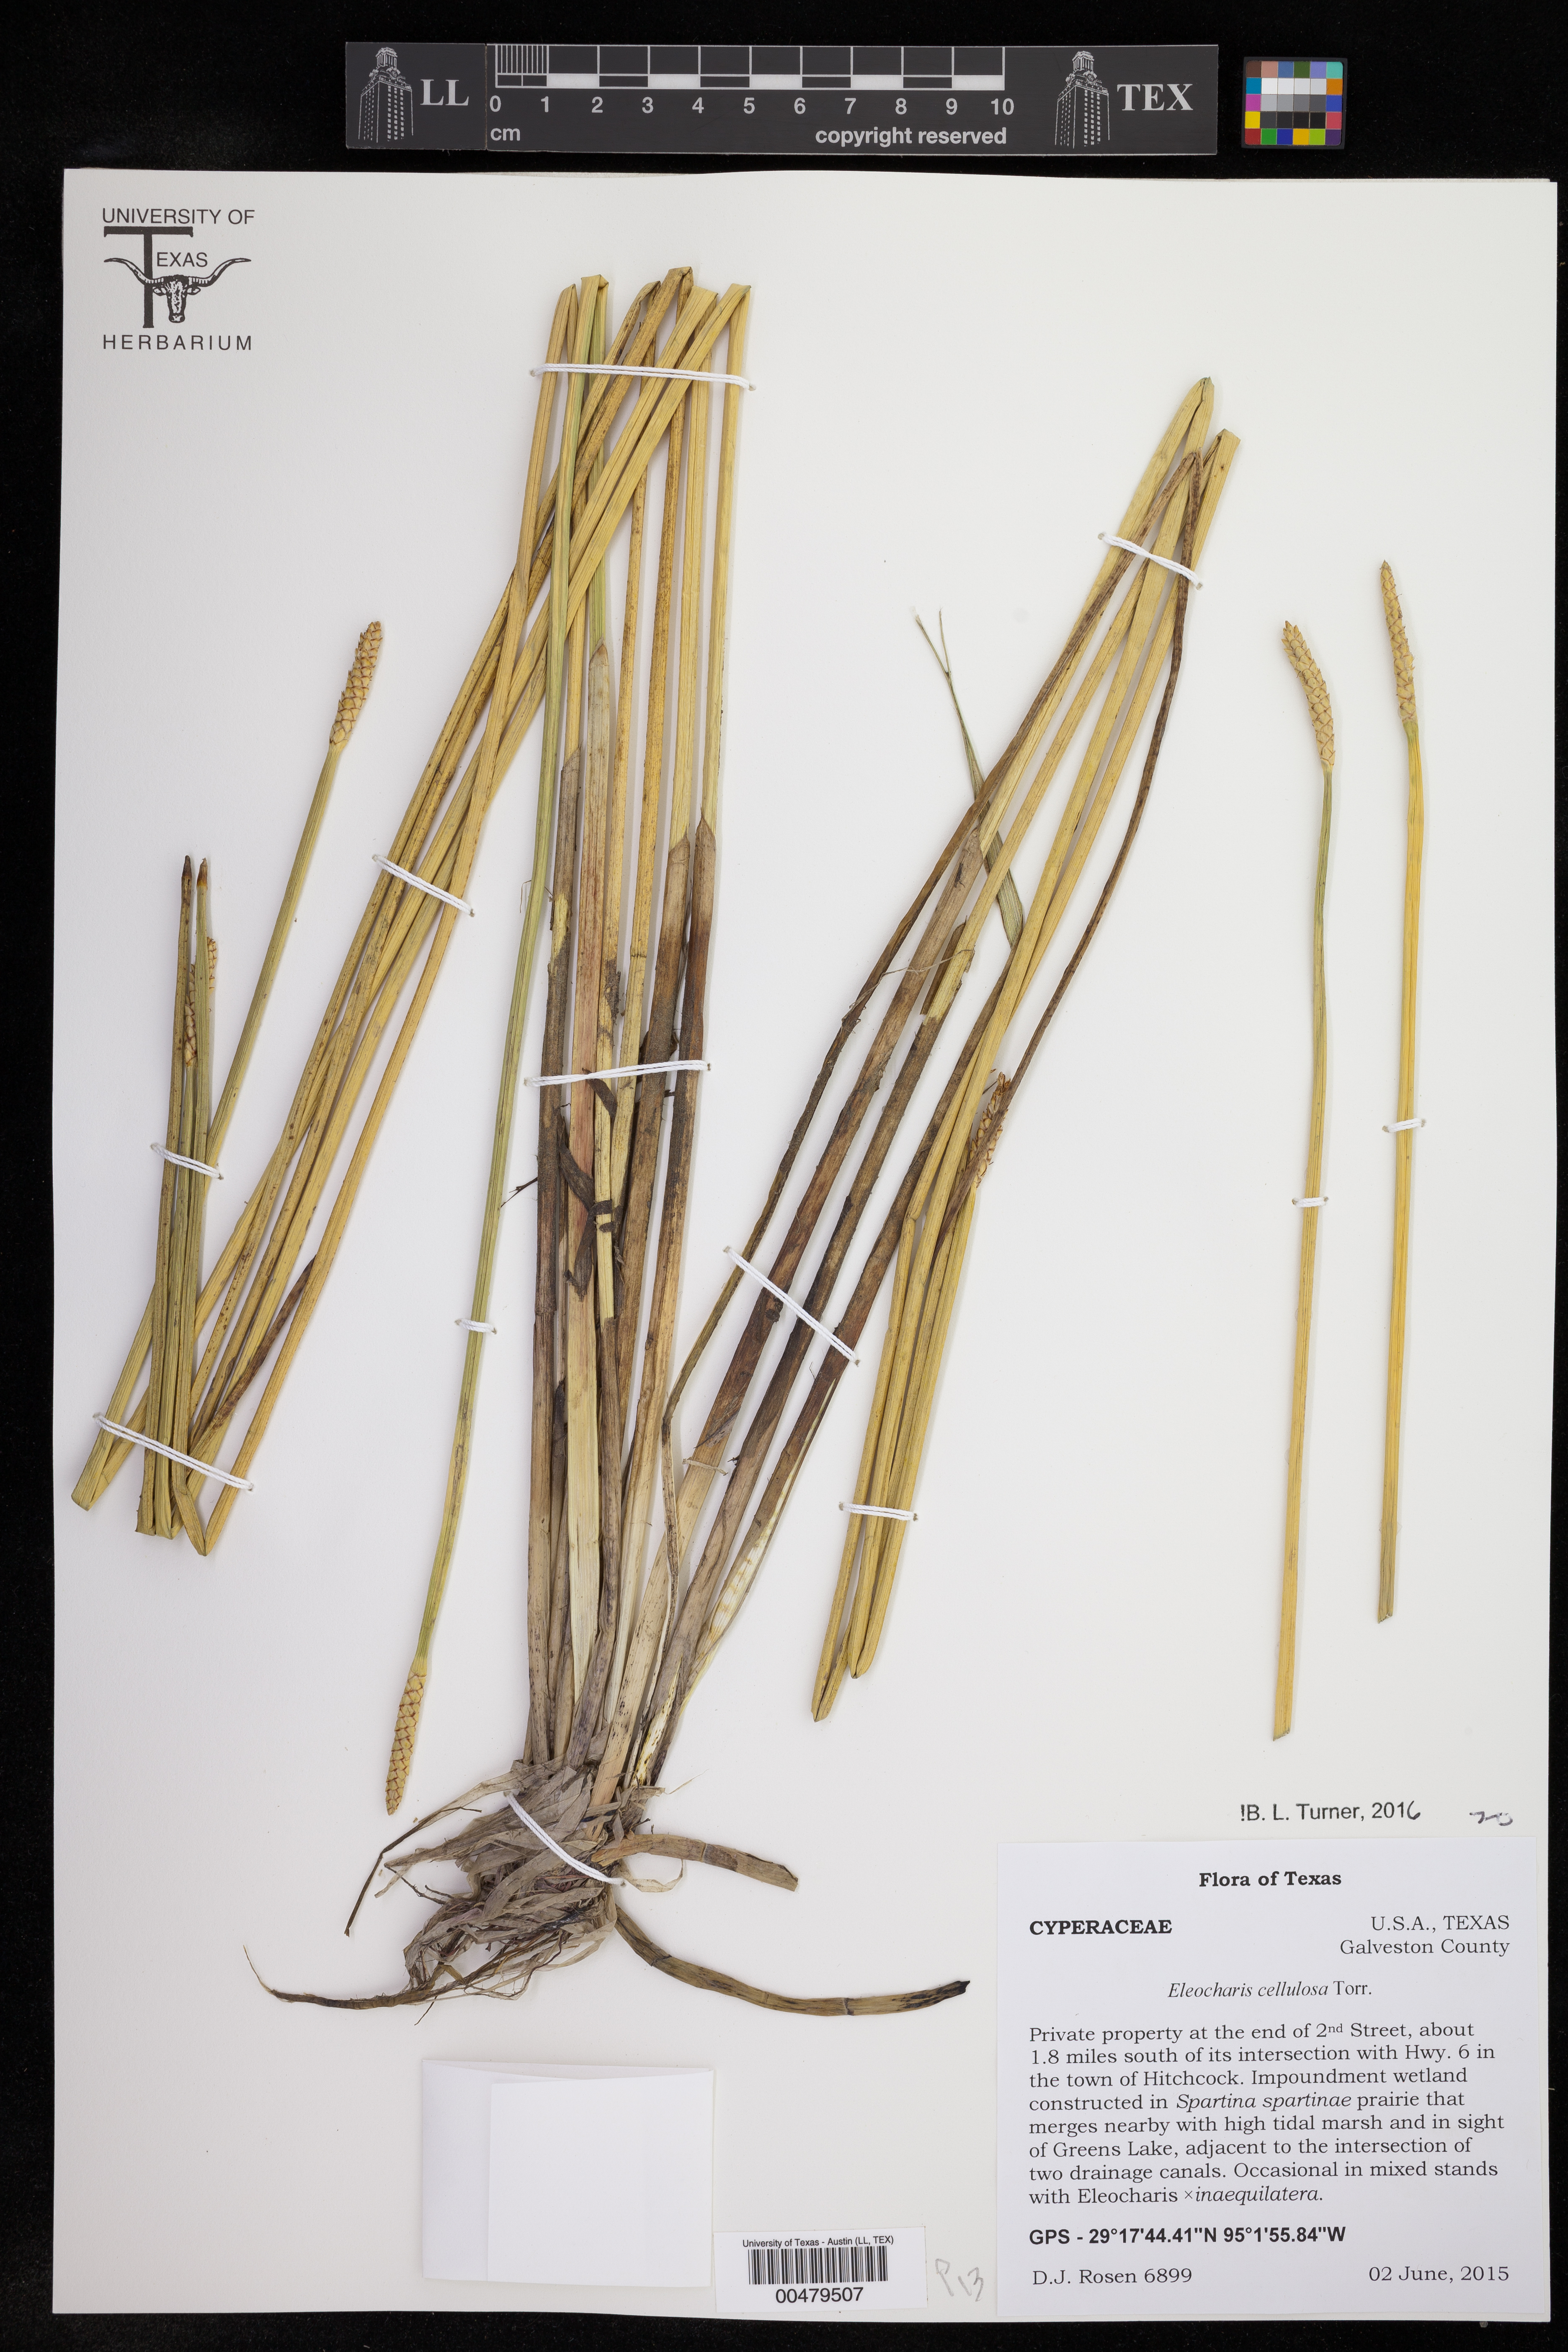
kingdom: Plantae
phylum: Tracheophyta
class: Liliopsida
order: Poales
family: Cyperaceae
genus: Eleocharis
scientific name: Eleocharis cellulosa
